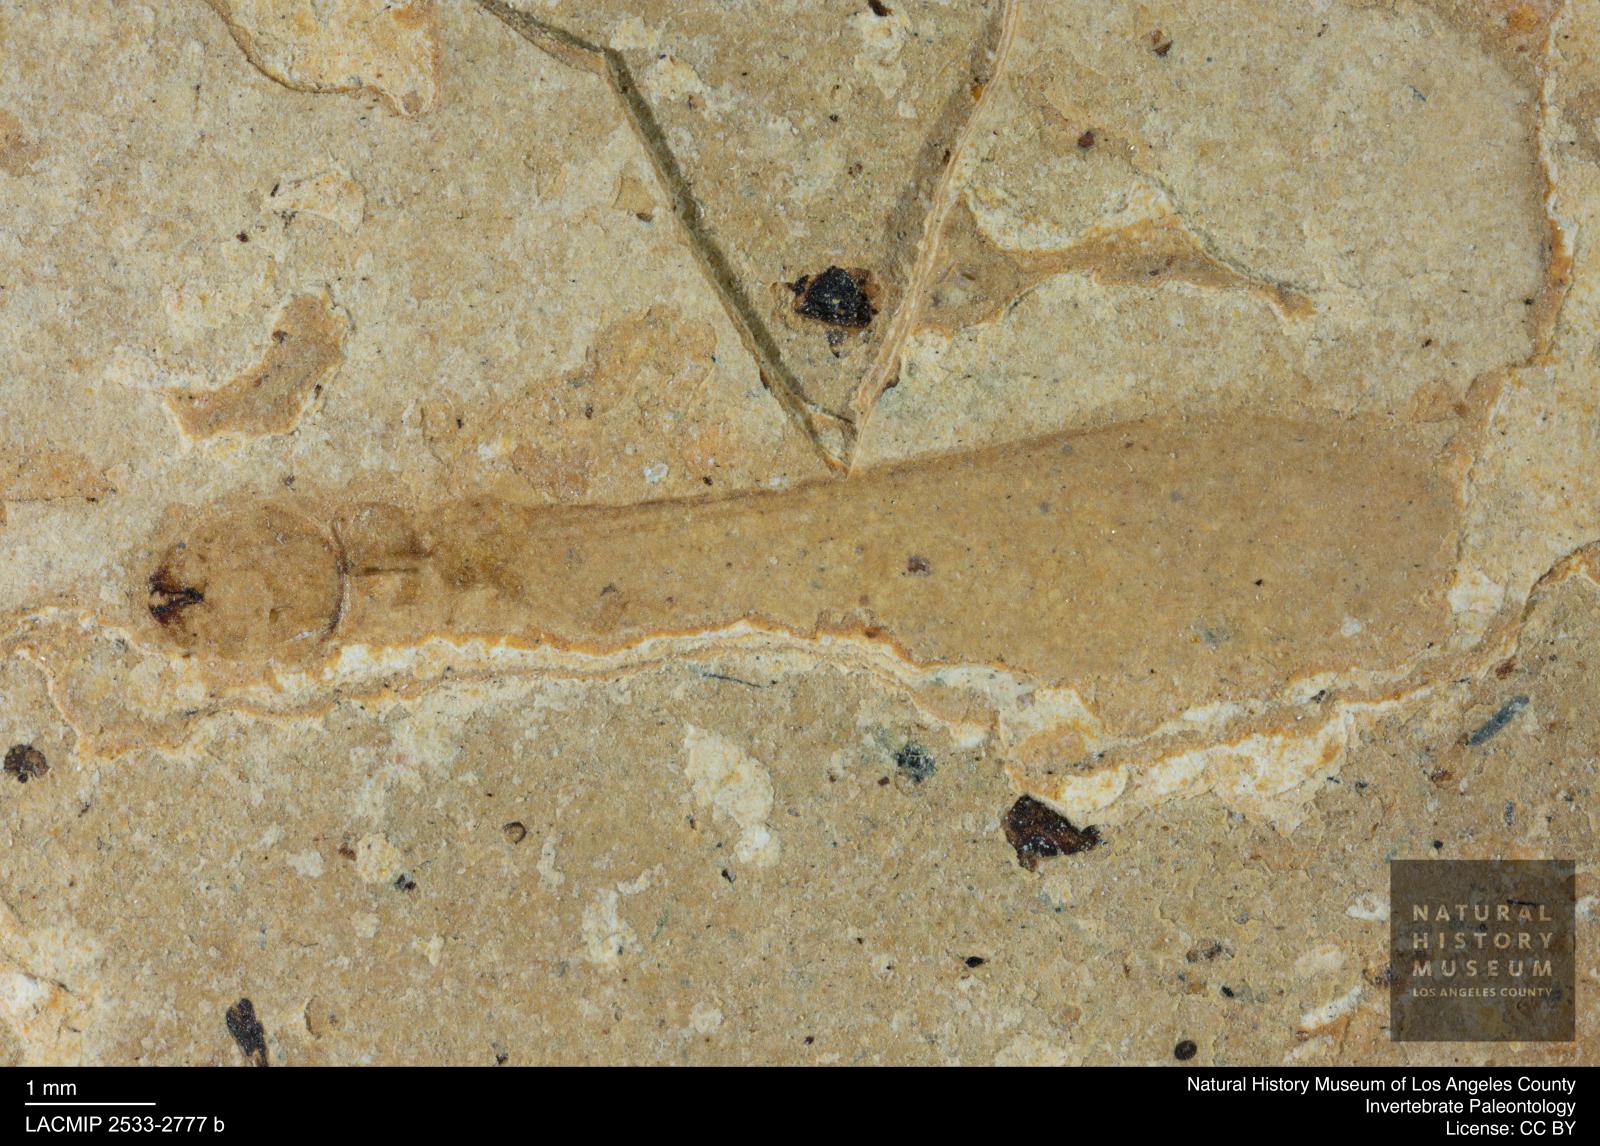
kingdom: Animalia
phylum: Arthropoda
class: Insecta
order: Blattodea
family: Kalotermitidae
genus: Kalotermes
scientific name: Kalotermes rhenanus
